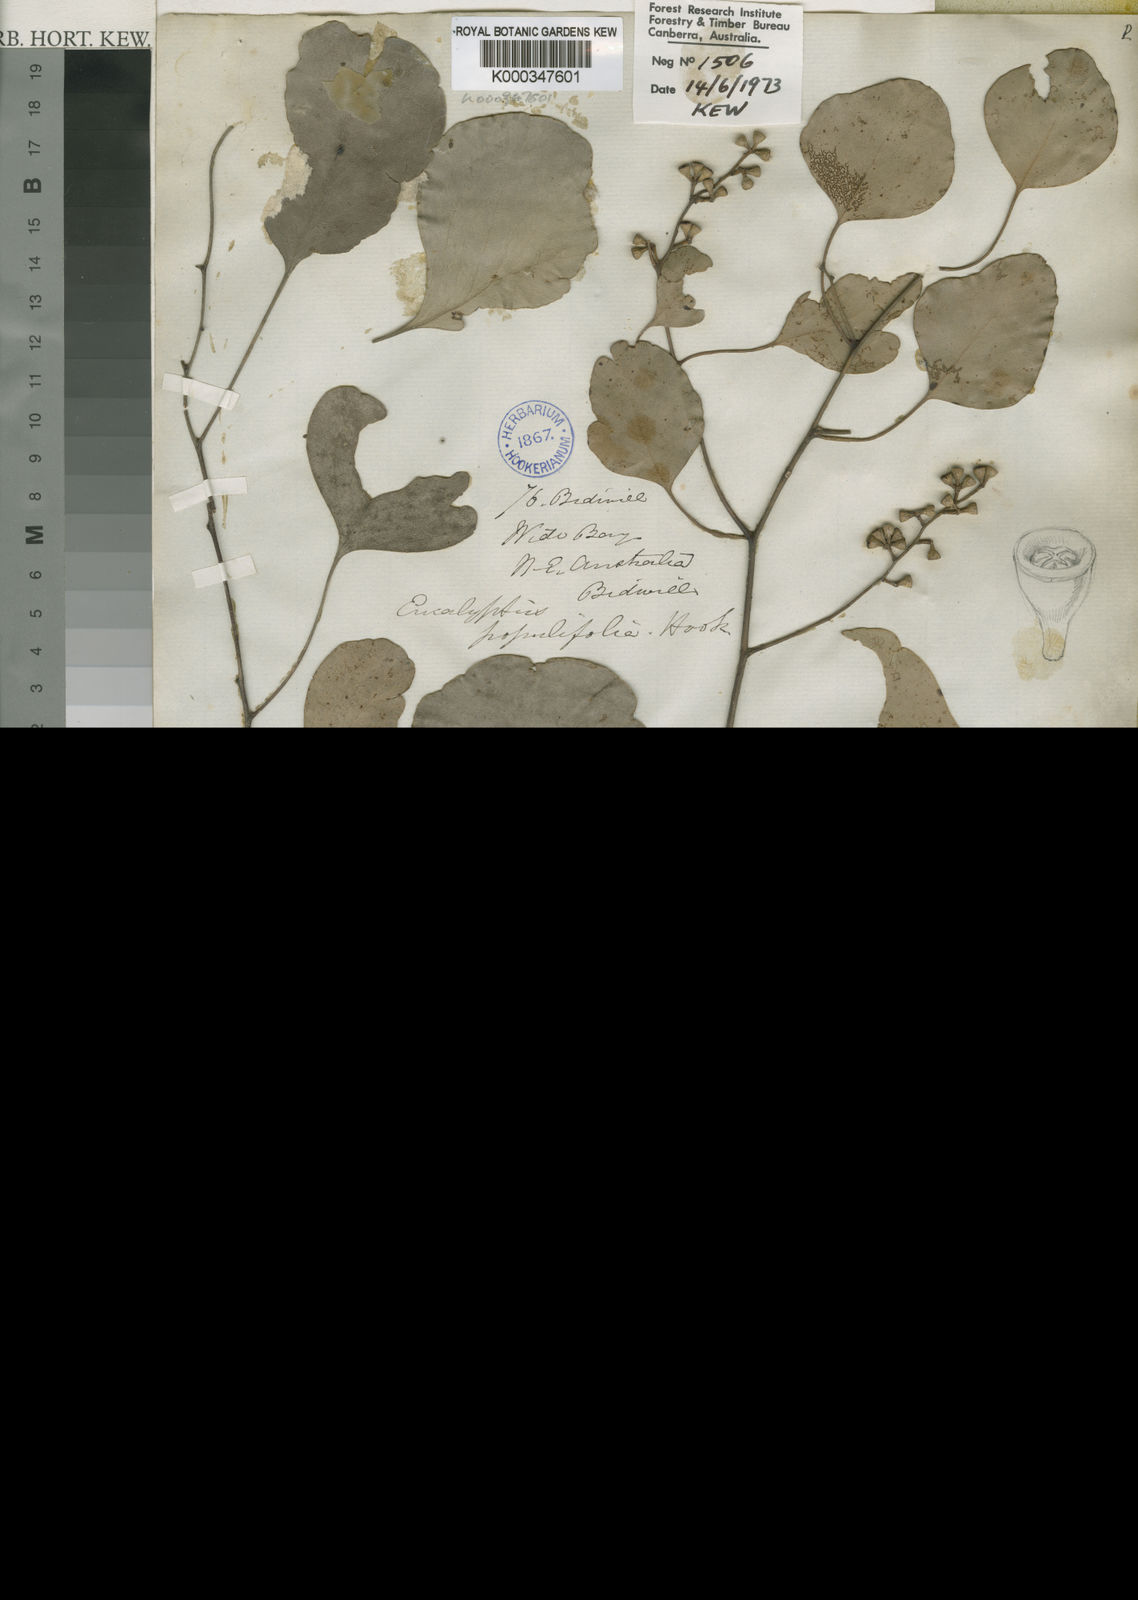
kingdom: Plantae
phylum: Tracheophyta
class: Magnoliopsida
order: Myrtales
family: Myrtaceae
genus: Eucalyptus
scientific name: Eucalyptus
